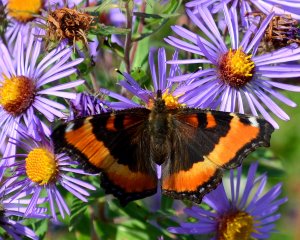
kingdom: Animalia
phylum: Arthropoda
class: Insecta
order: Lepidoptera
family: Nymphalidae
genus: Aglais
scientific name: Aglais milberti
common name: Milbert's Tortoiseshell
